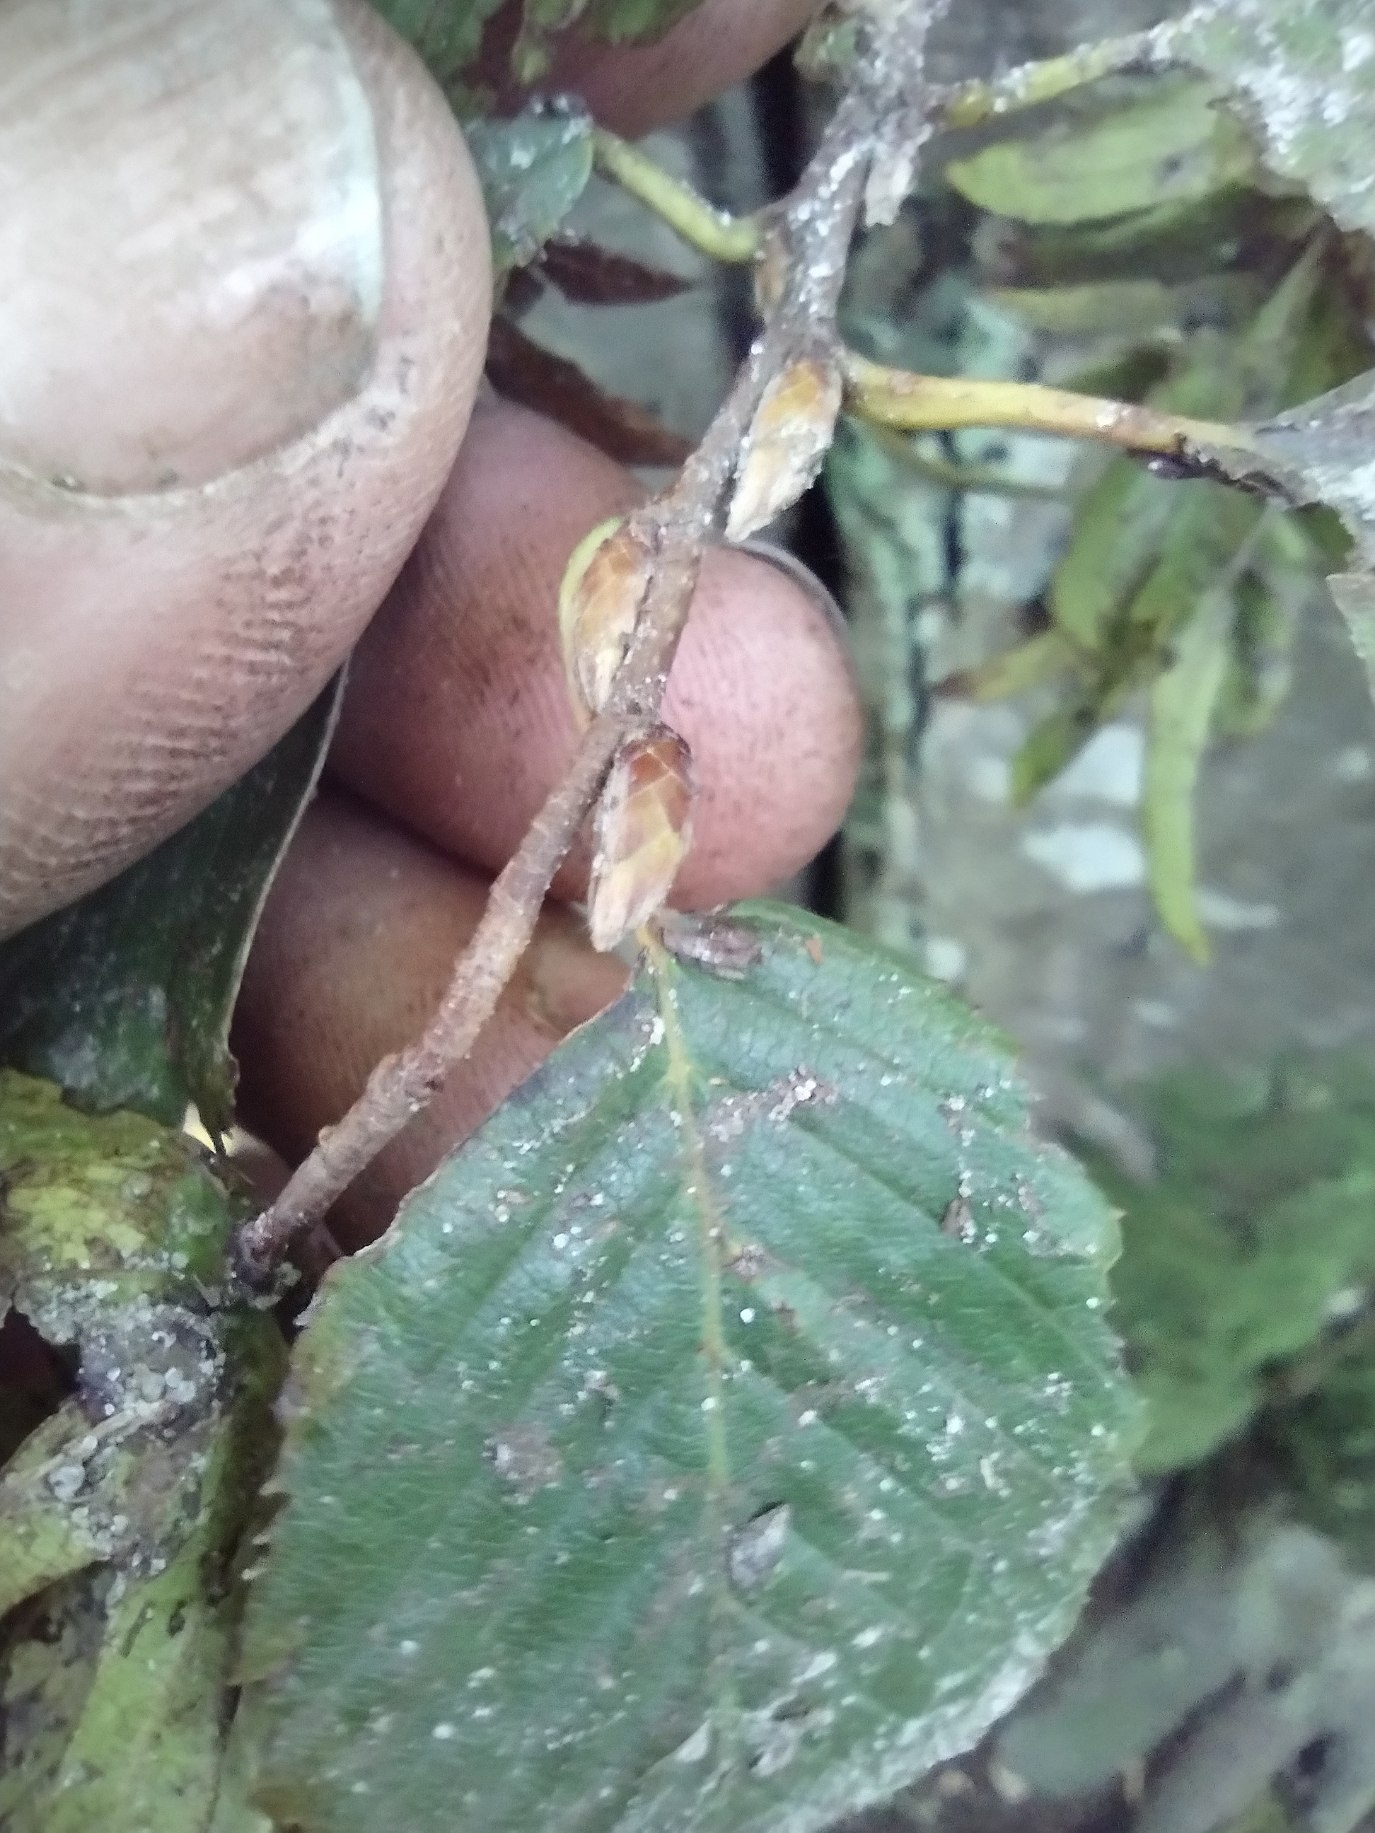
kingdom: Plantae
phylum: Tracheophyta
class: Magnoliopsida
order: Fagales
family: Betulaceae
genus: Carpinus
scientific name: Carpinus betulus
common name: Avnbøg
